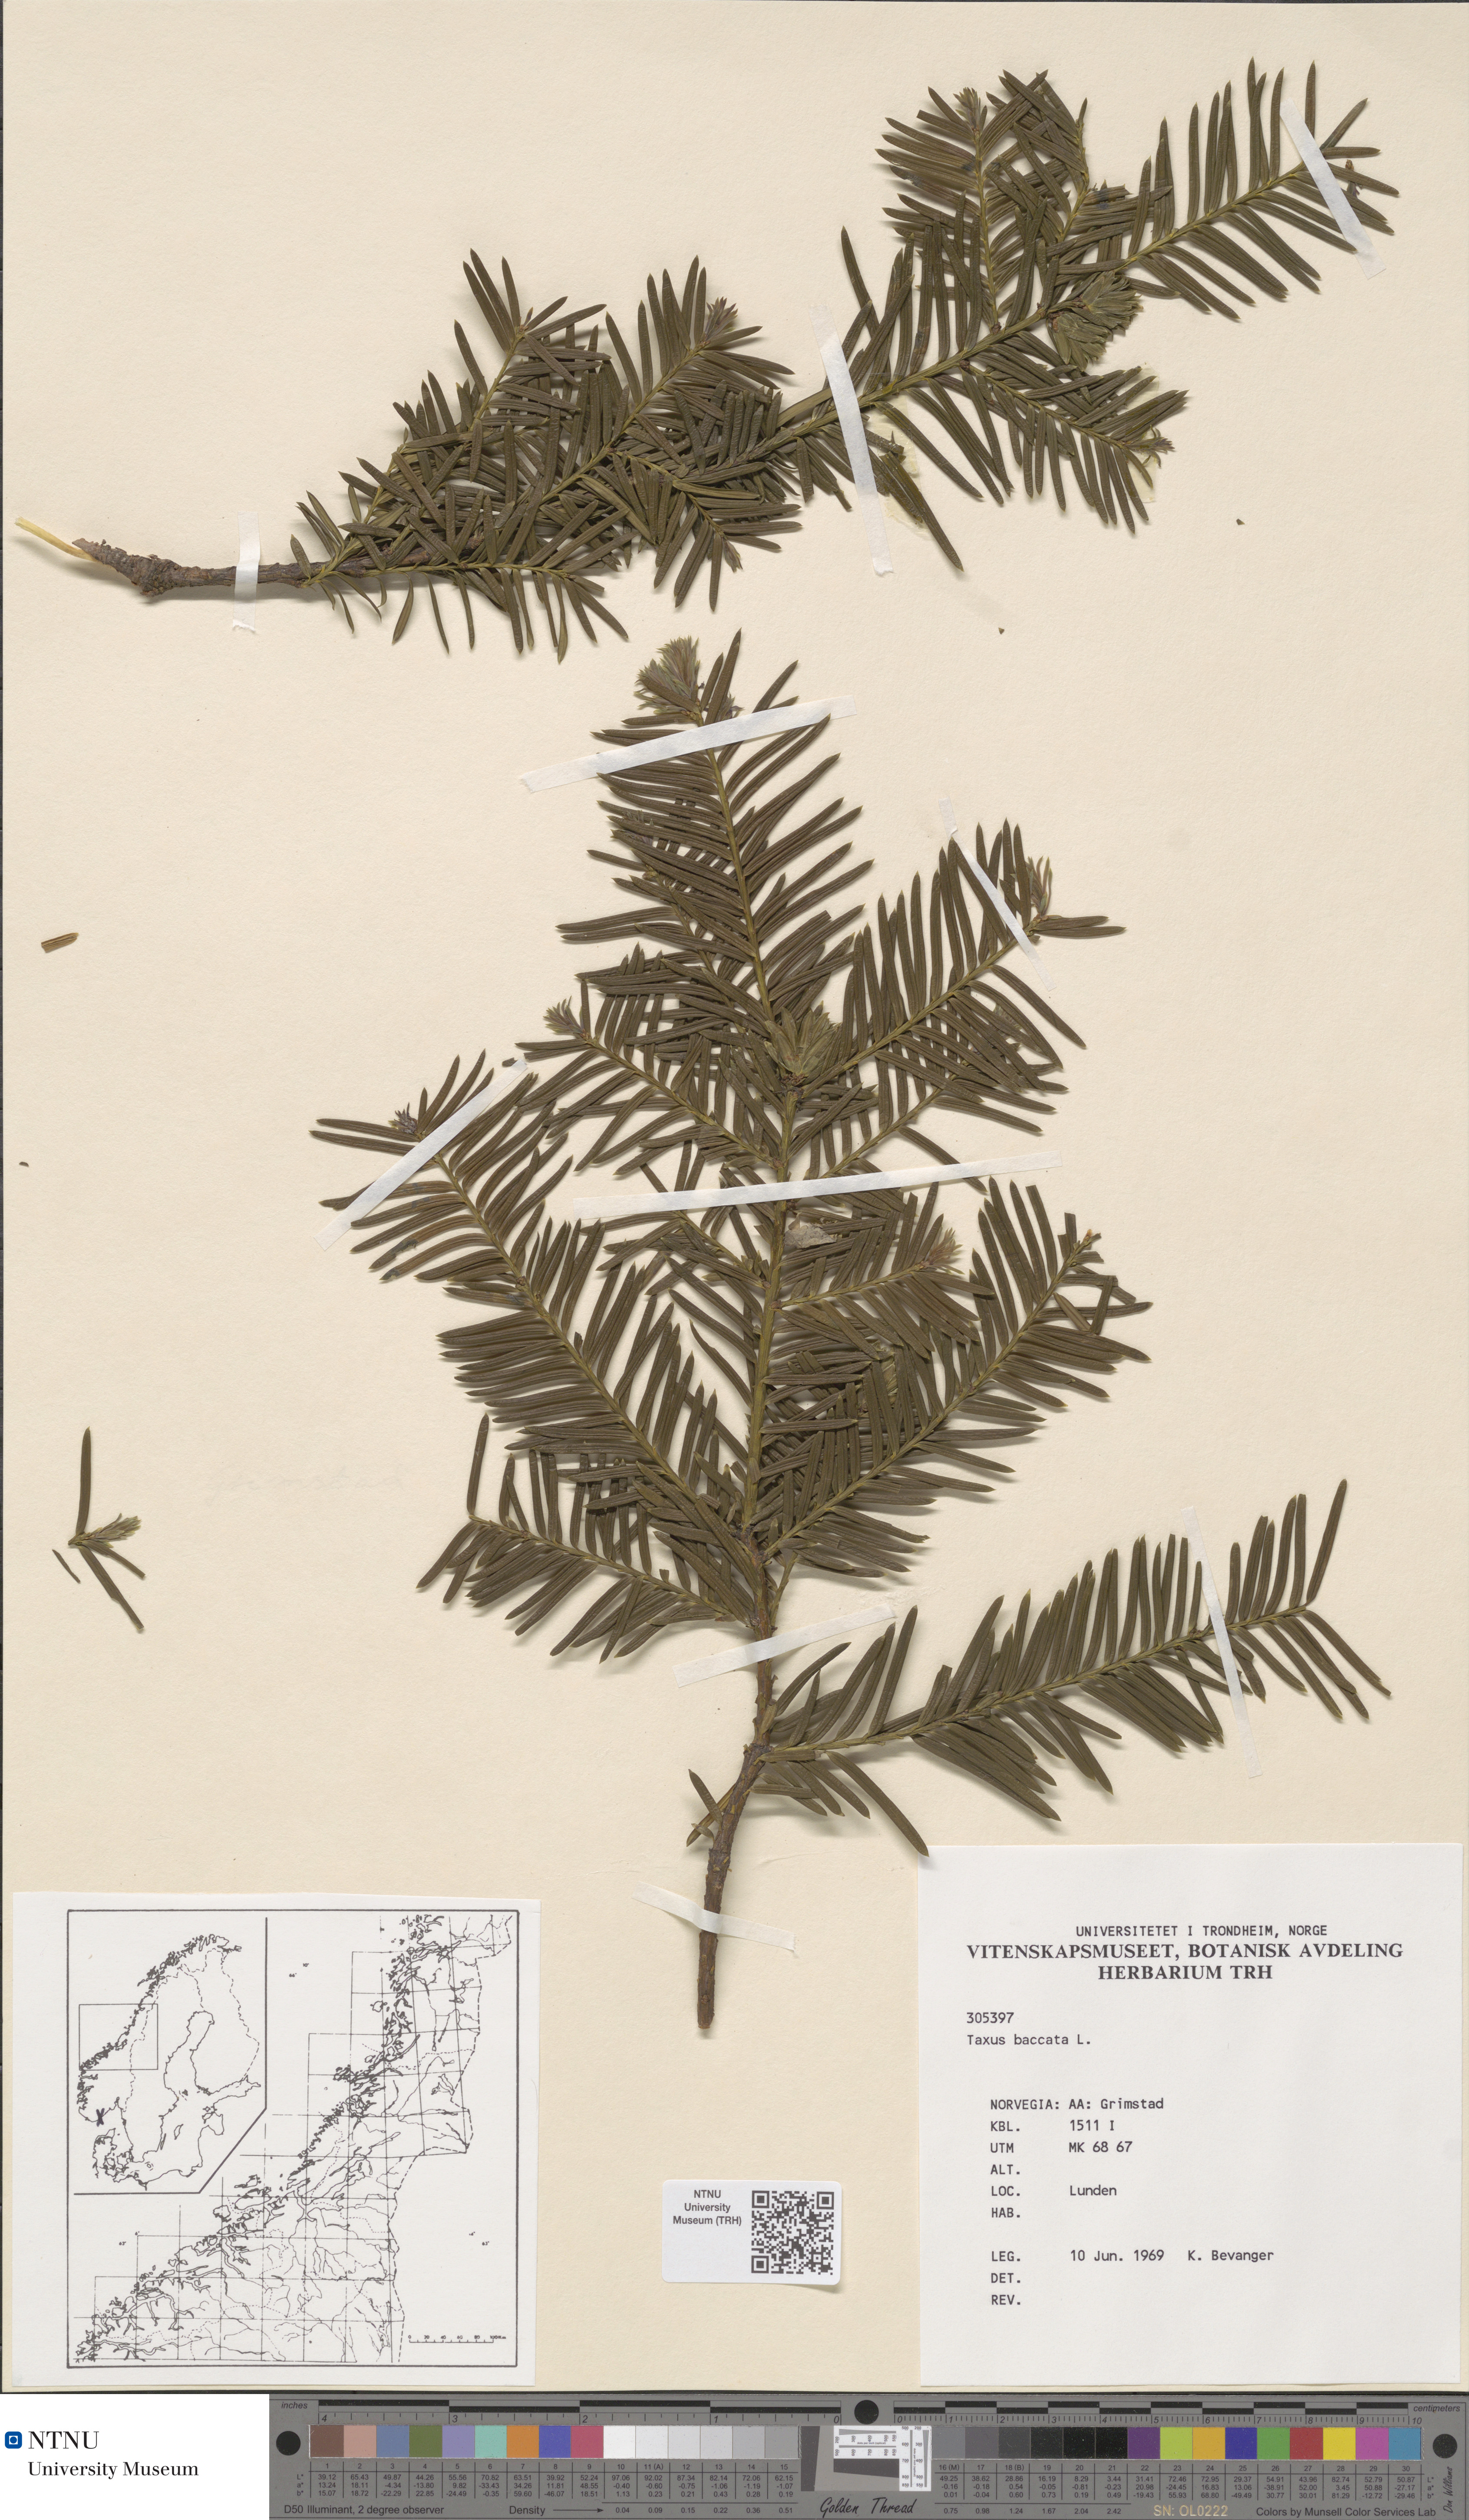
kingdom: Plantae
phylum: Tracheophyta
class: Pinopsida
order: Pinales
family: Taxaceae
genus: Taxus
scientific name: Taxus baccata
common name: Yew
